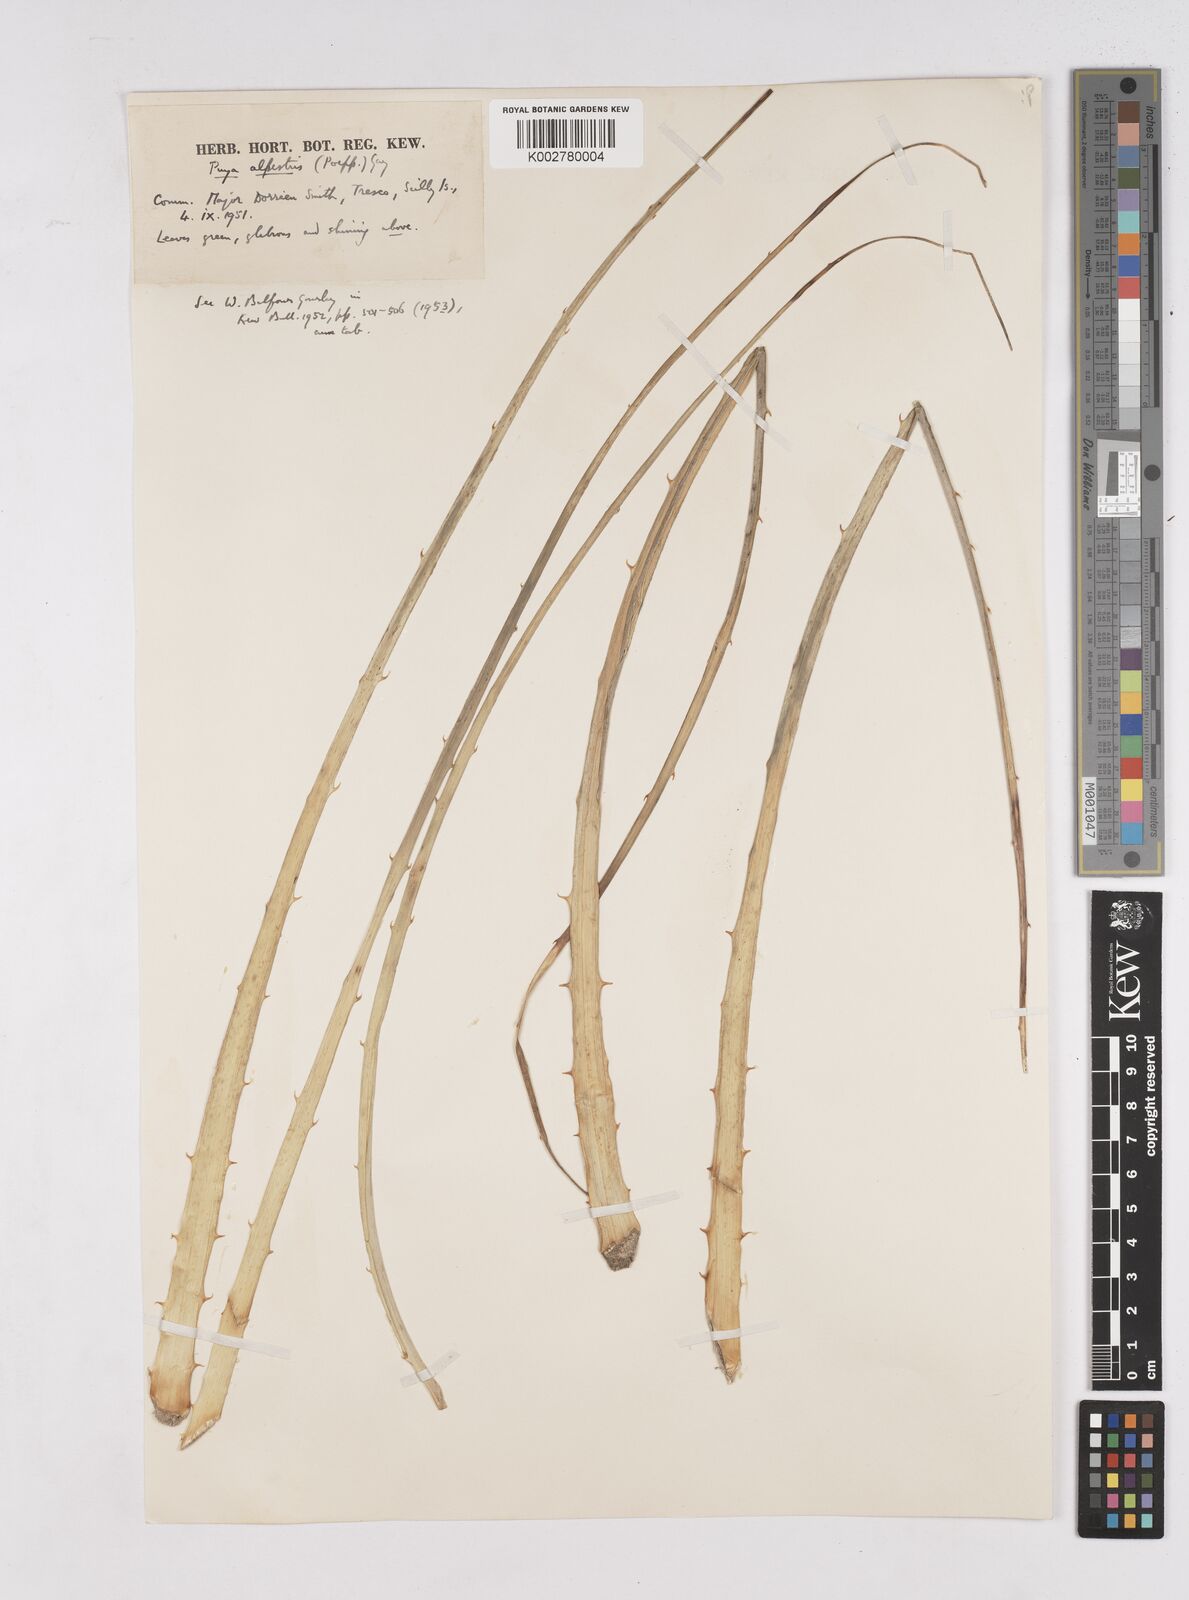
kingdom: Plantae
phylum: Tracheophyta
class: Liliopsida
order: Poales
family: Bromeliaceae
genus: Puya
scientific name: Puya alpestris
